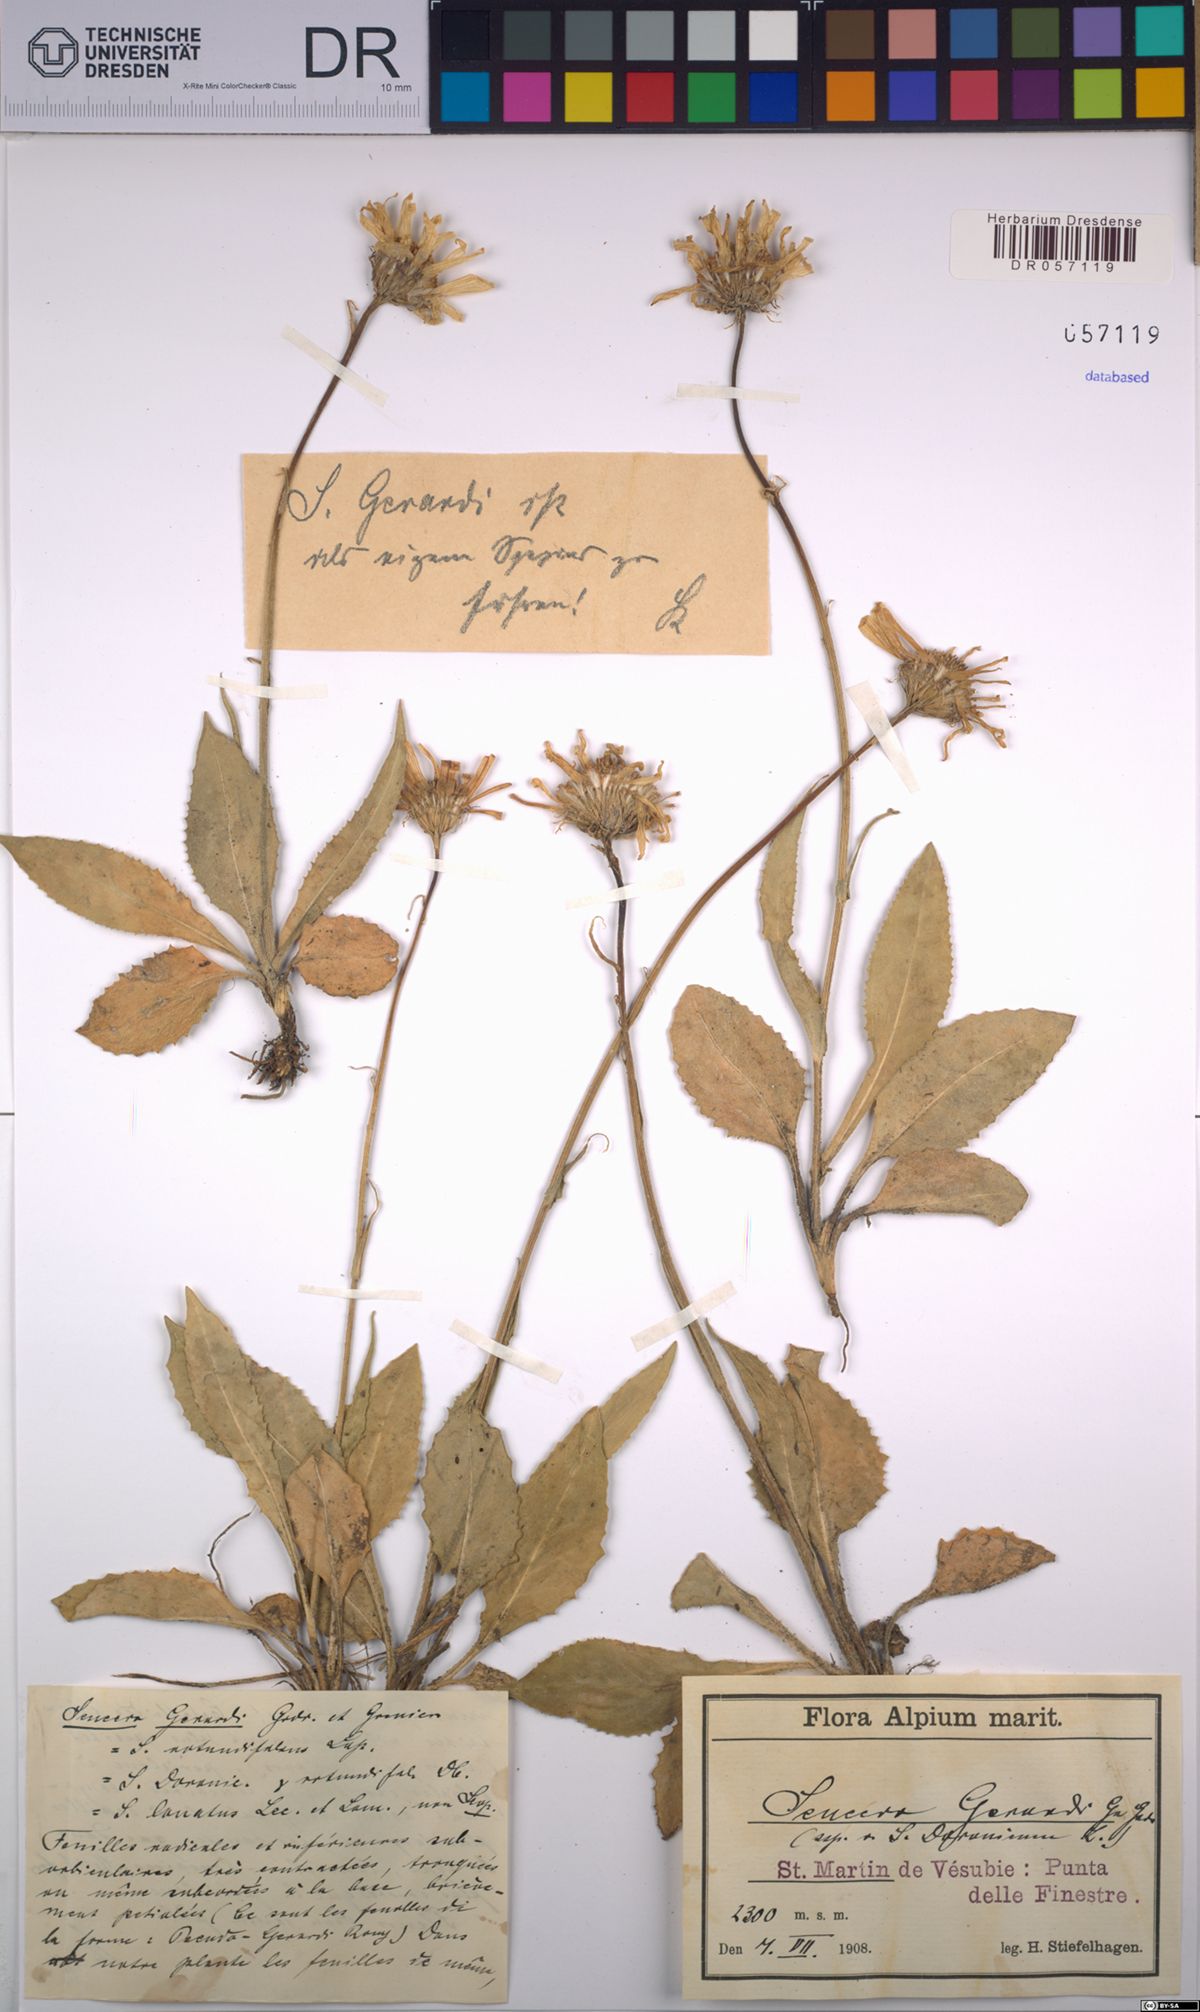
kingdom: Plantae
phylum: Tracheophyta
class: Magnoliopsida
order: Asterales
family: Asteraceae
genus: Senecio
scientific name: Senecio provincialis
